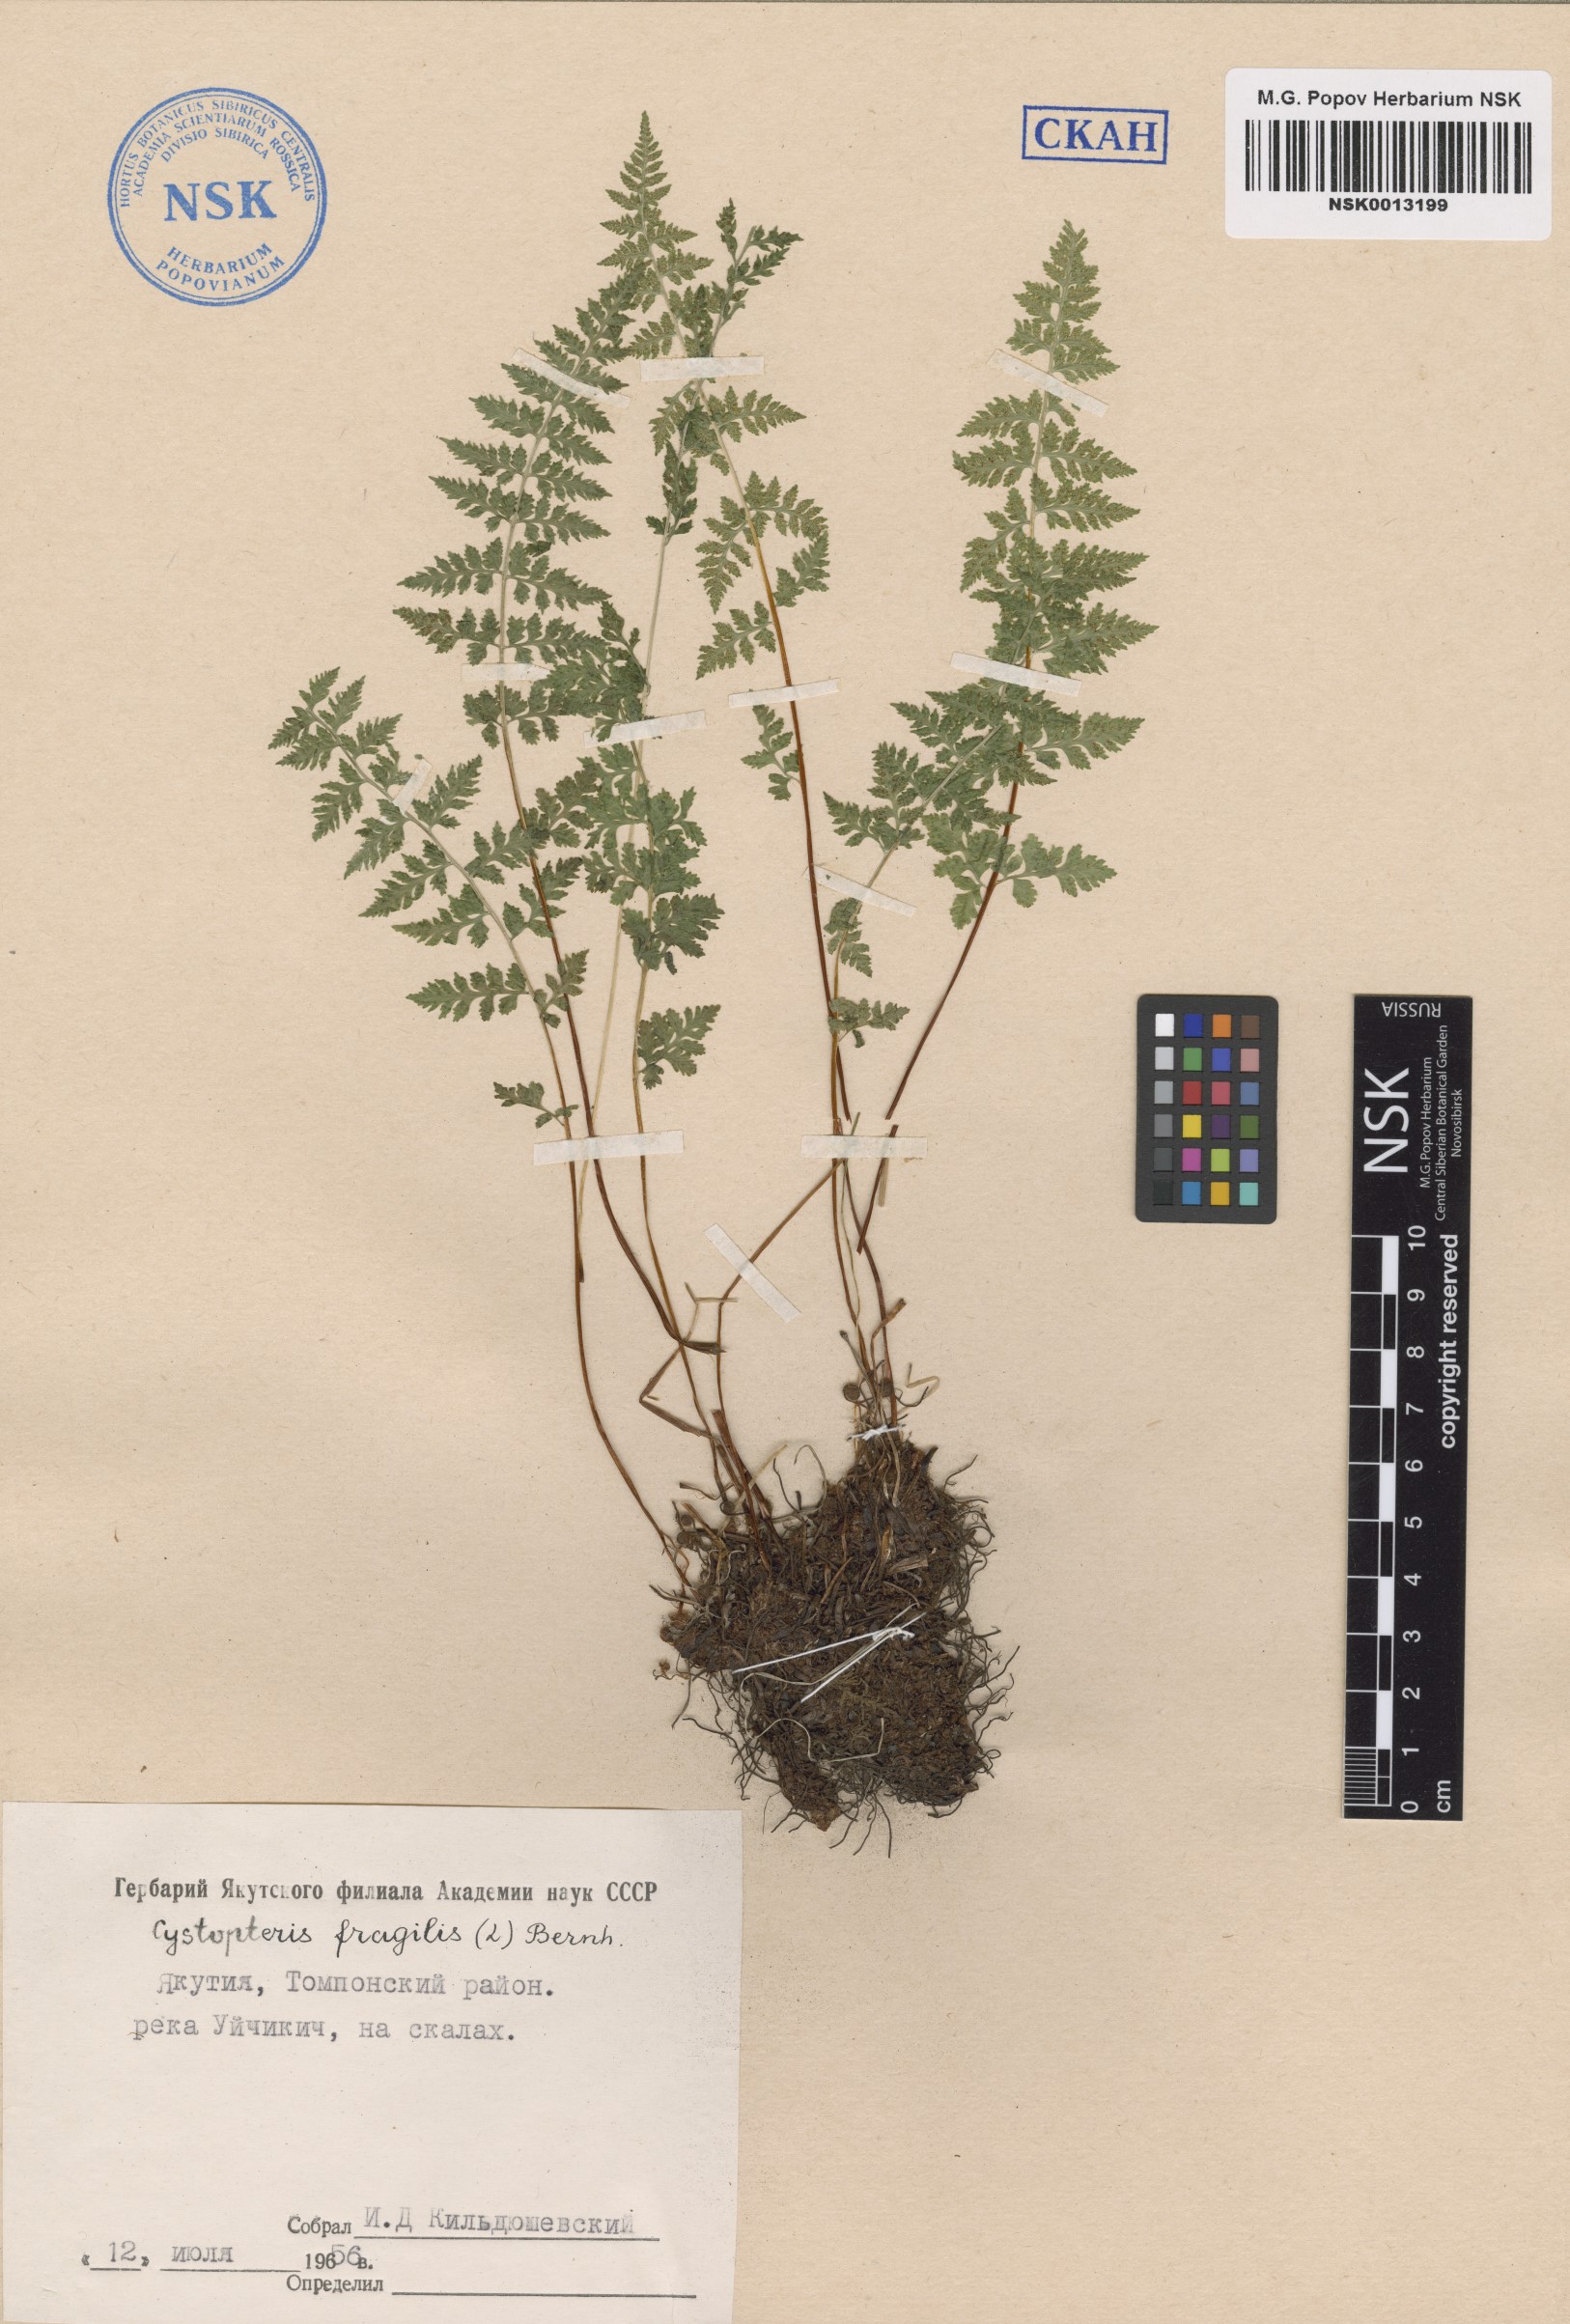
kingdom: Plantae
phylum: Tracheophyta
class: Polypodiopsida
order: Polypodiales
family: Cystopteridaceae
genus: Cystopteris
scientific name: Cystopteris fragilis
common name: Brittle bladder fern
